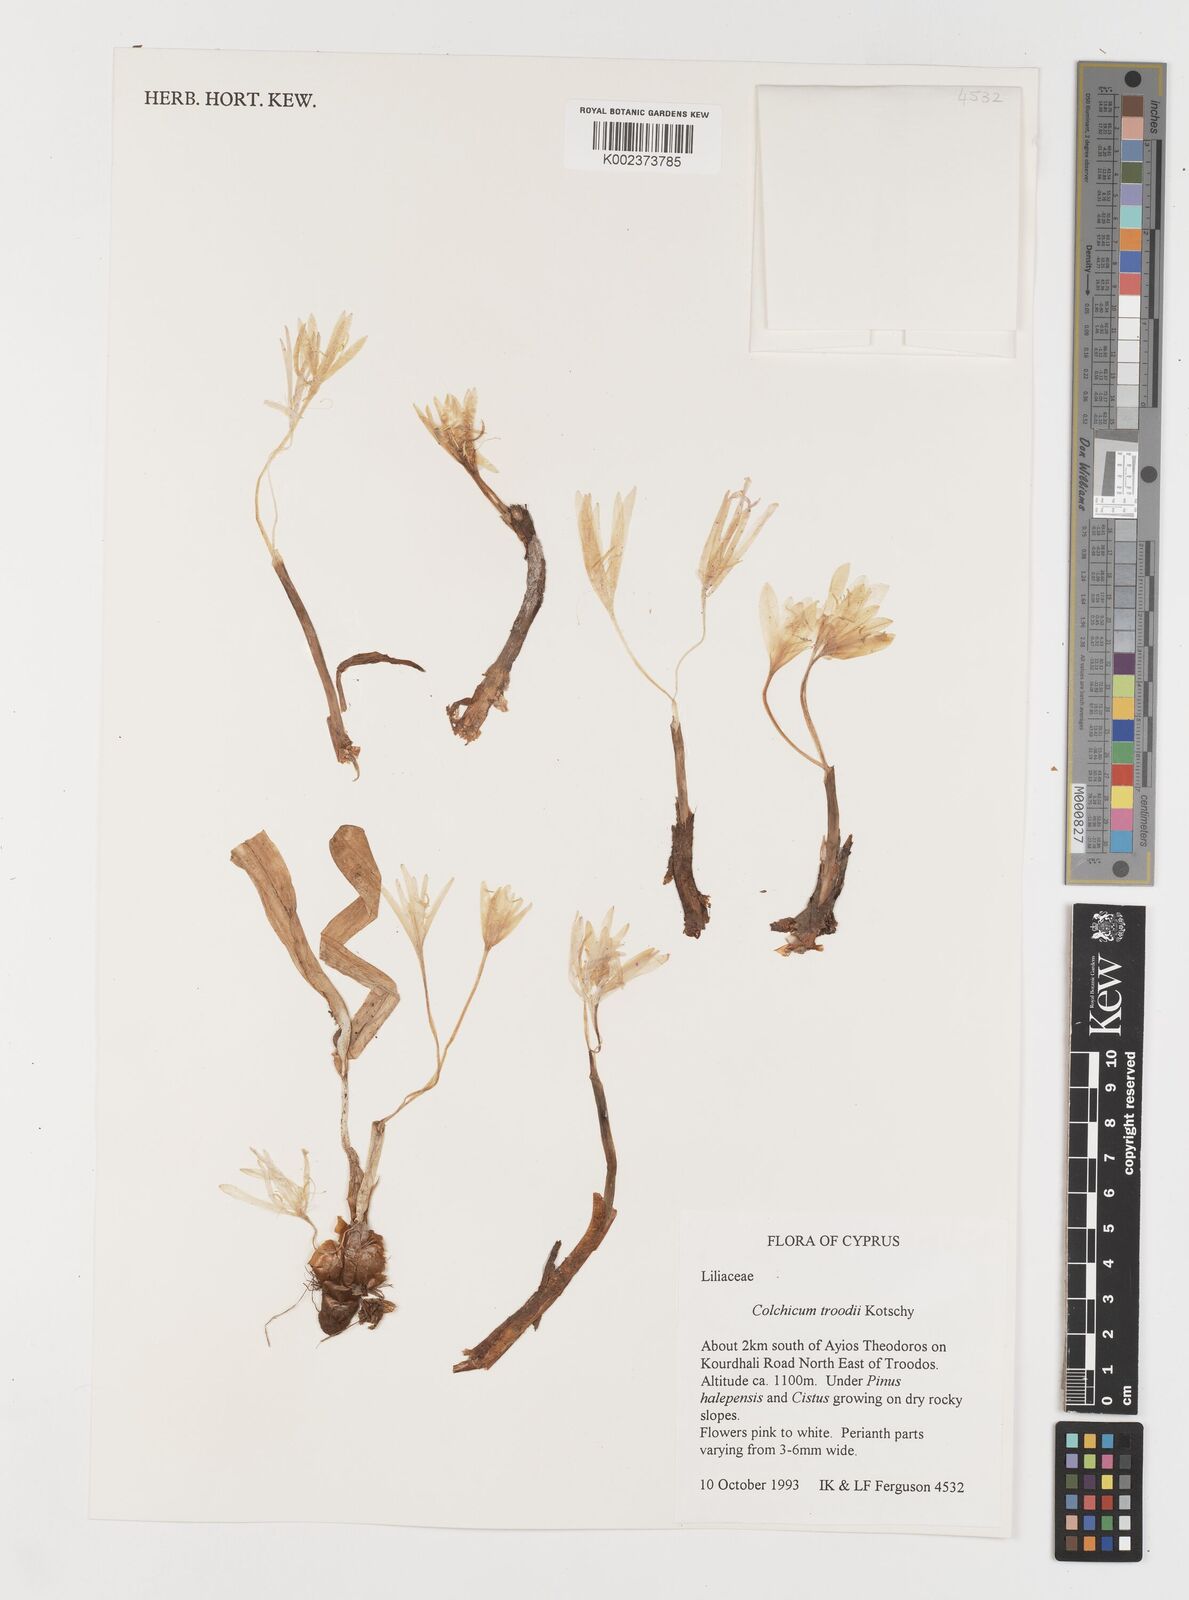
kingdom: Plantae
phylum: Tracheophyta
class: Liliopsida
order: Liliales
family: Colchicaceae
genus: Colchicum
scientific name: Colchicum
